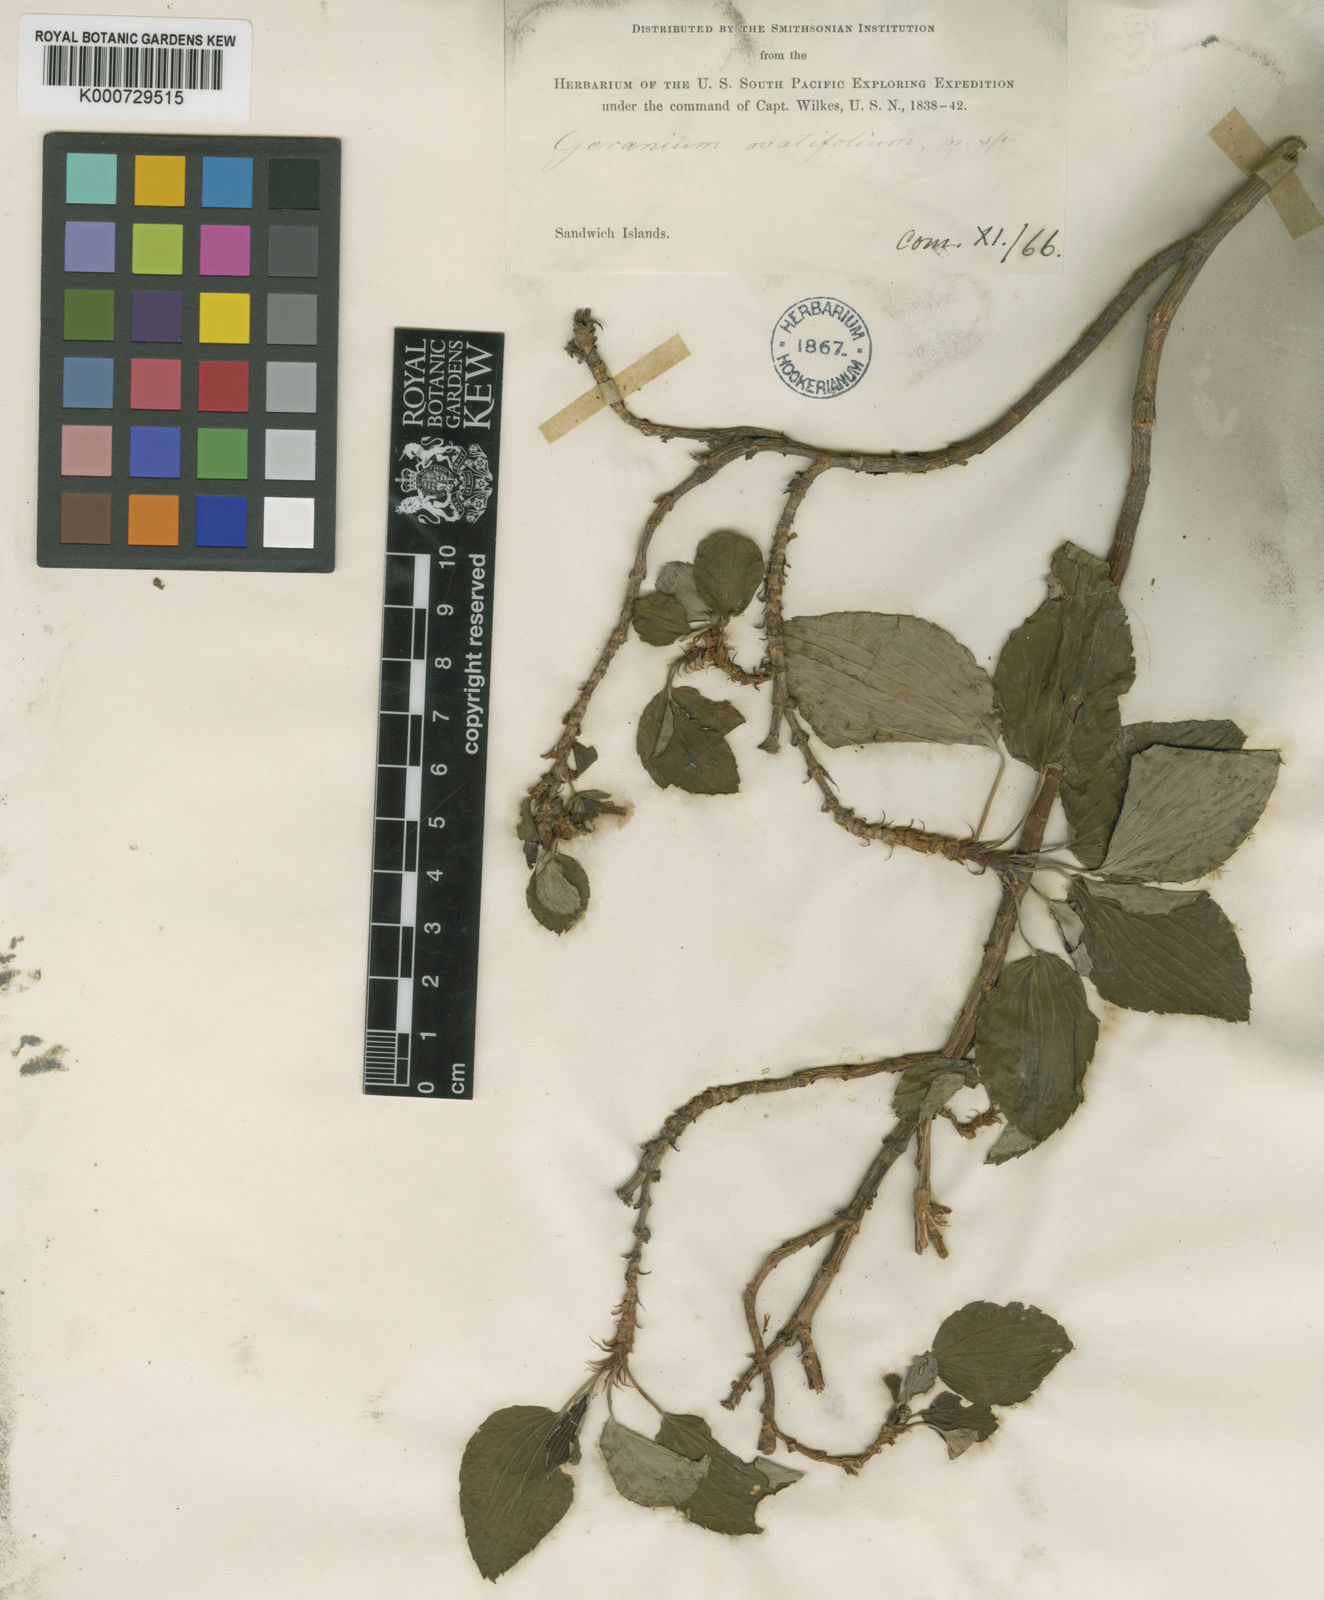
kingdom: Plantae
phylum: Tracheophyta
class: Magnoliopsida
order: Geraniales
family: Geraniaceae
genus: Geranium
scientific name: Geranium multiflorum
